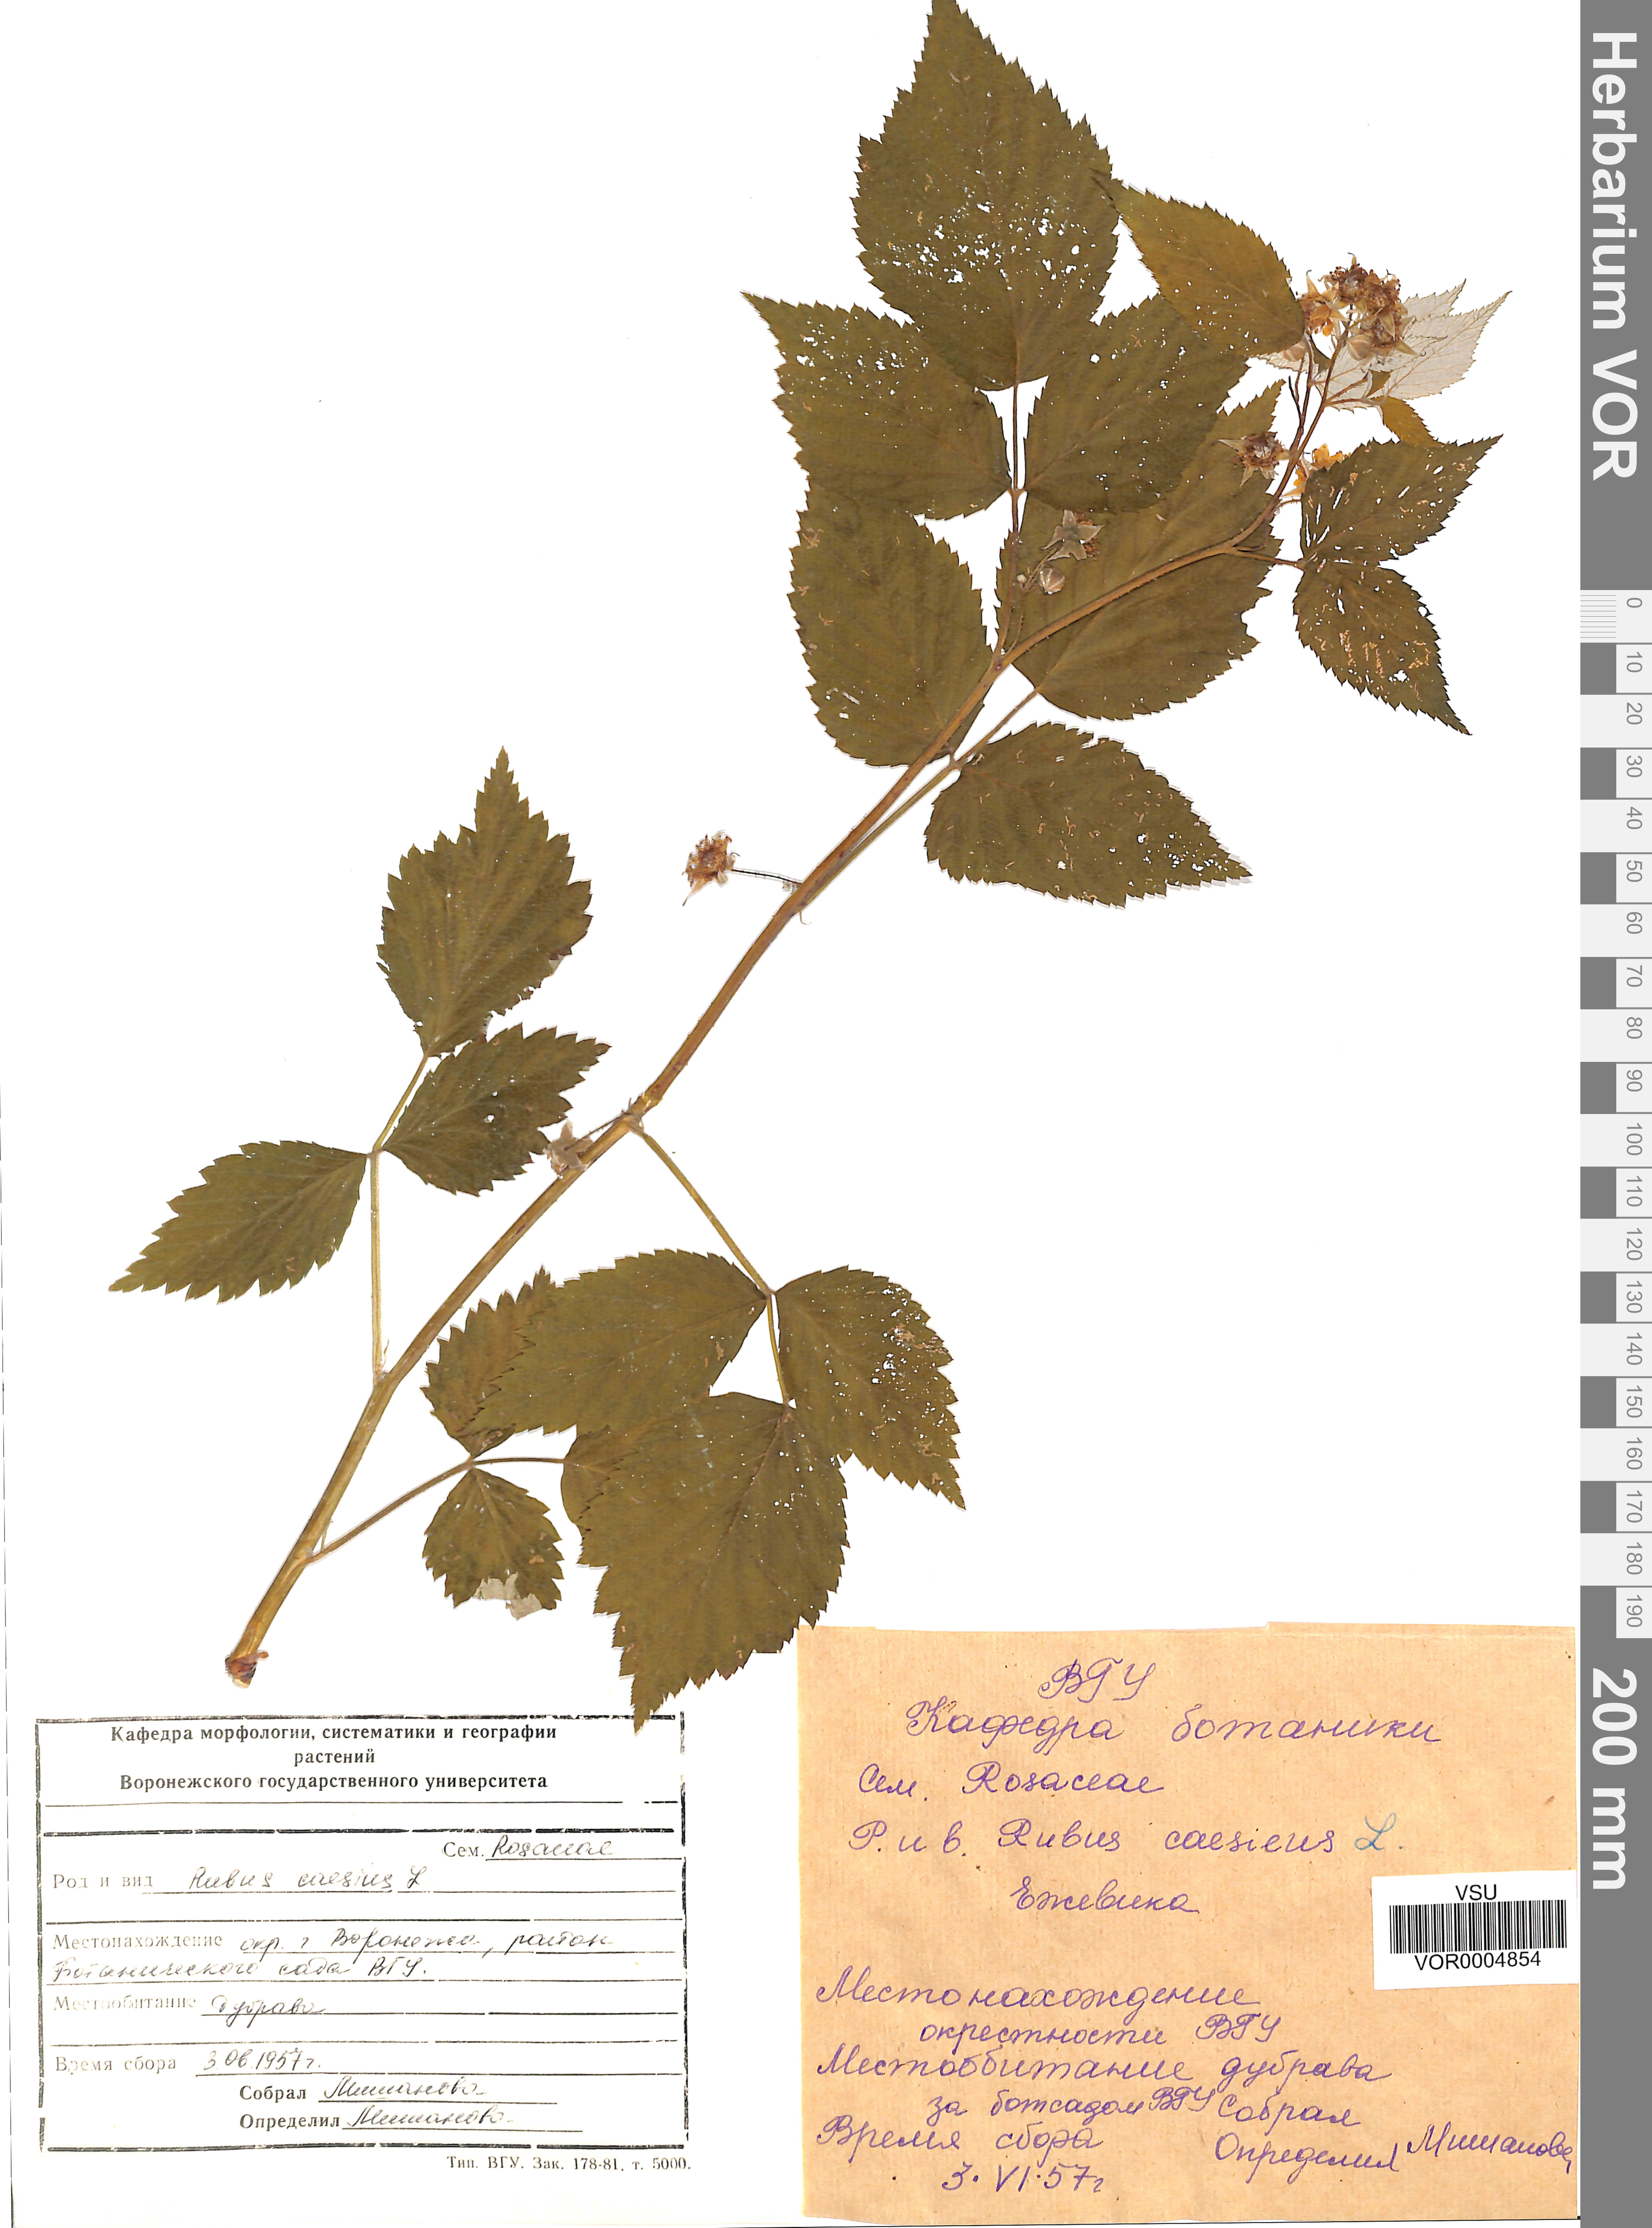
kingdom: Plantae
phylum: Tracheophyta
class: Magnoliopsida
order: Rosales
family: Rosaceae
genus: Rubus
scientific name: Rubus caesius
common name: Dewberry
